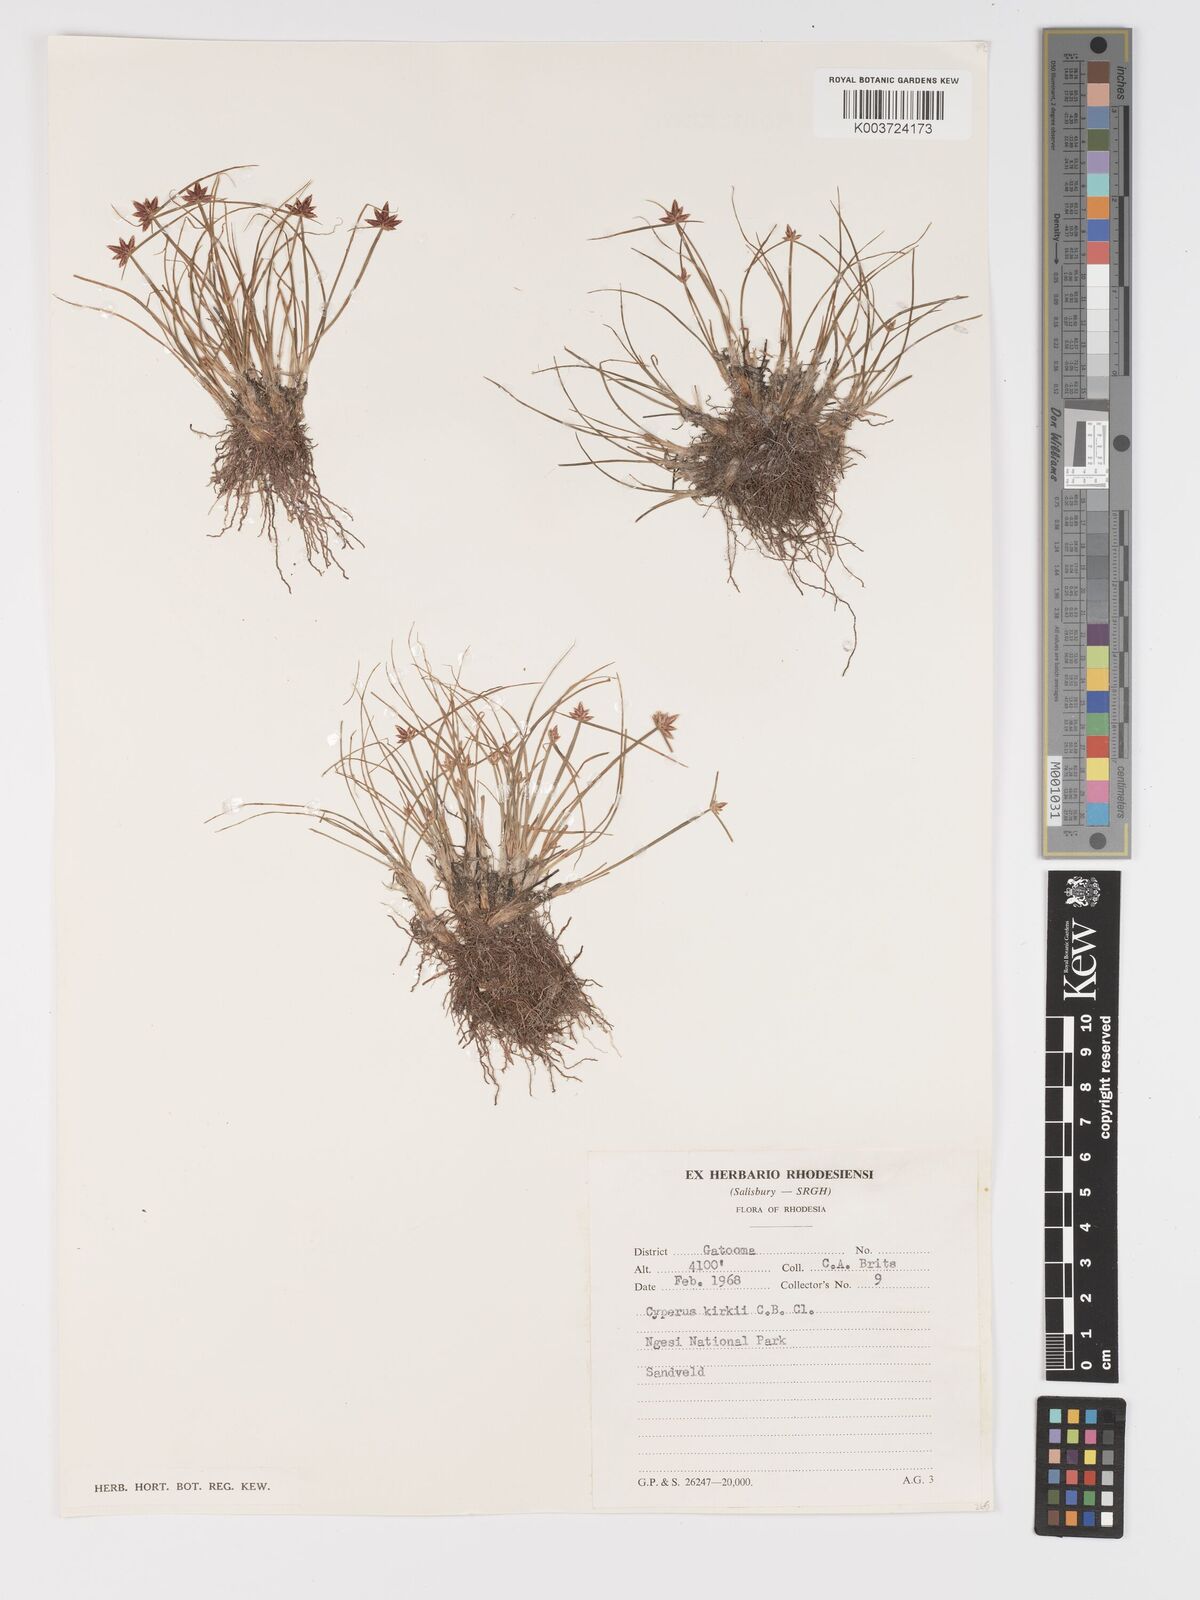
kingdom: Plantae
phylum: Tracheophyta
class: Liliopsida
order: Poales
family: Cyperaceae
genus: Cyperus
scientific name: Cyperus rupestris
